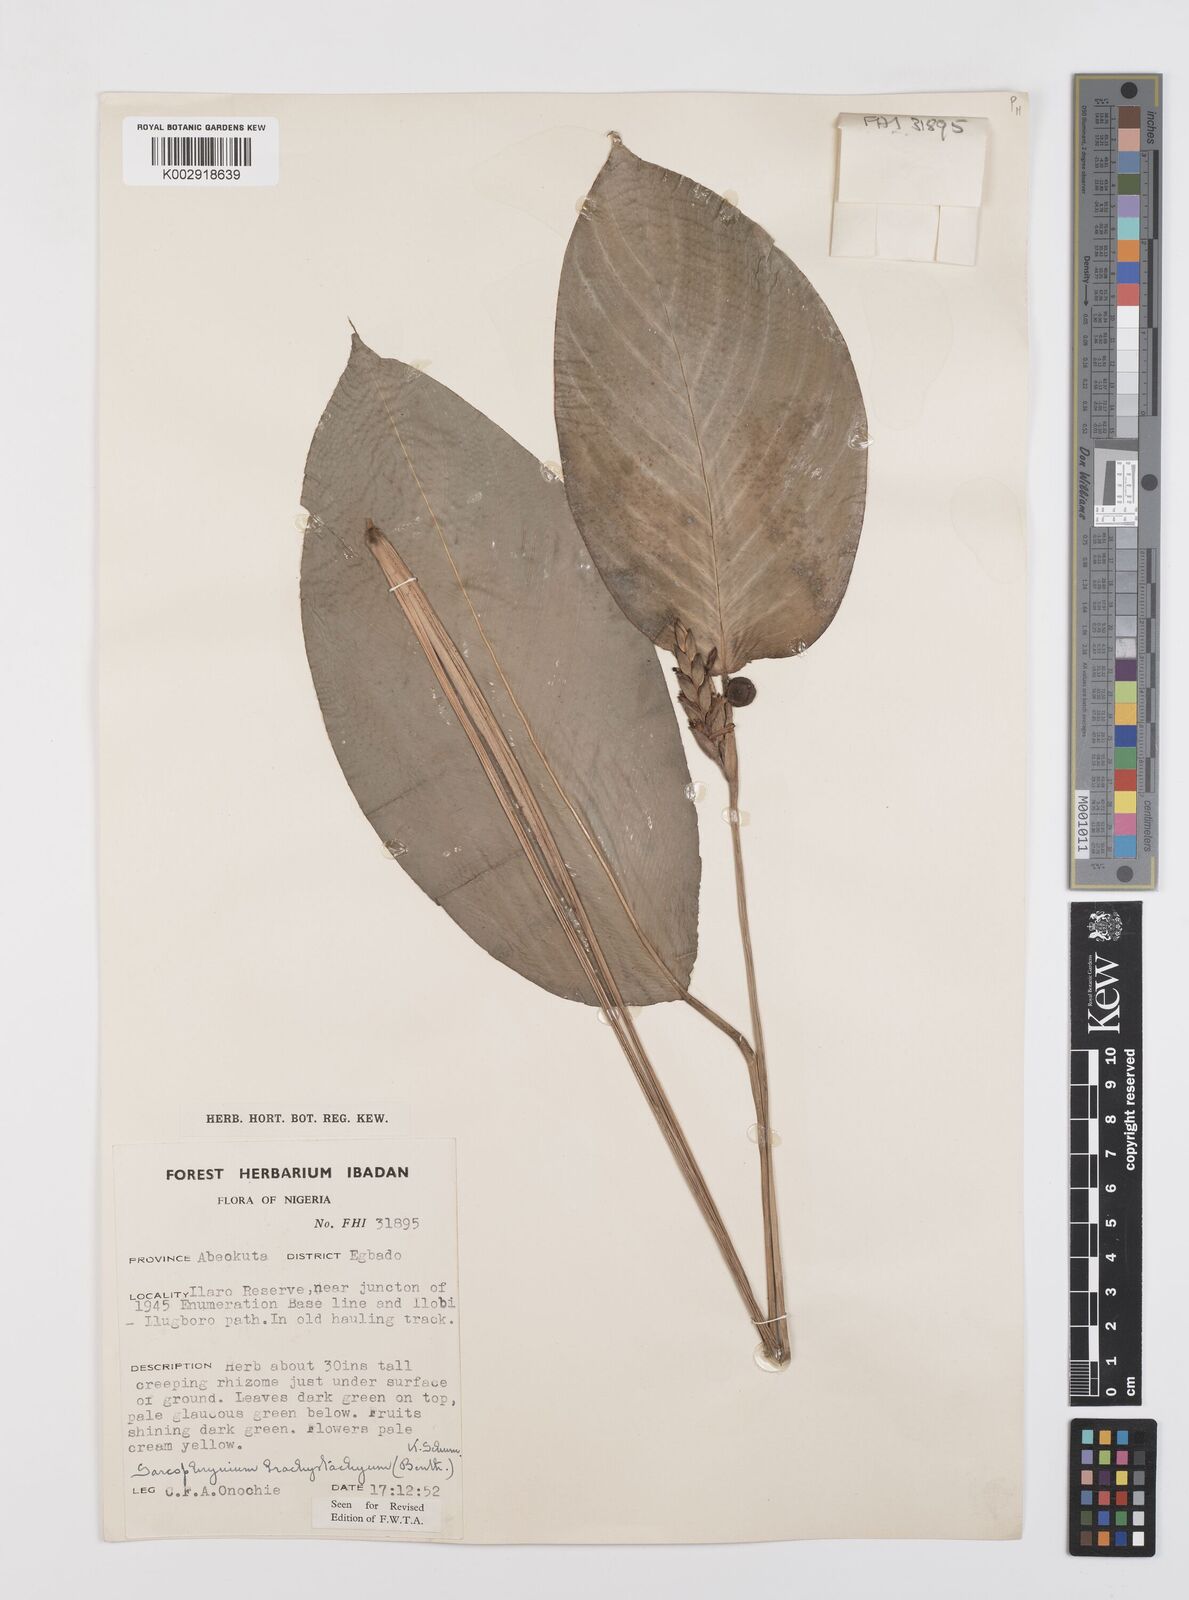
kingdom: Plantae
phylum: Tracheophyta
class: Liliopsida
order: Zingiberales
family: Marantaceae
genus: Sarcophrynium
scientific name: Sarcophrynium brachystachyum
